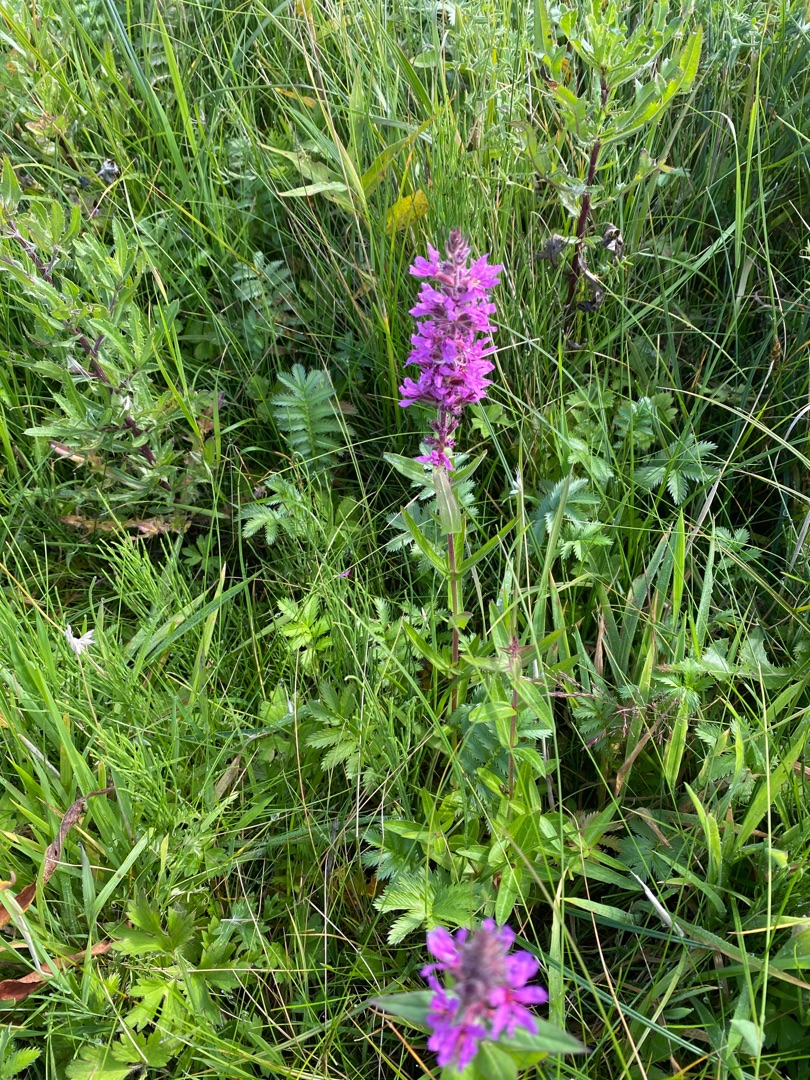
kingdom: Plantae
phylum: Tracheophyta
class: Magnoliopsida
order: Myrtales
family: Lythraceae
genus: Lythrum
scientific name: Lythrum salicaria
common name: Kattehale
